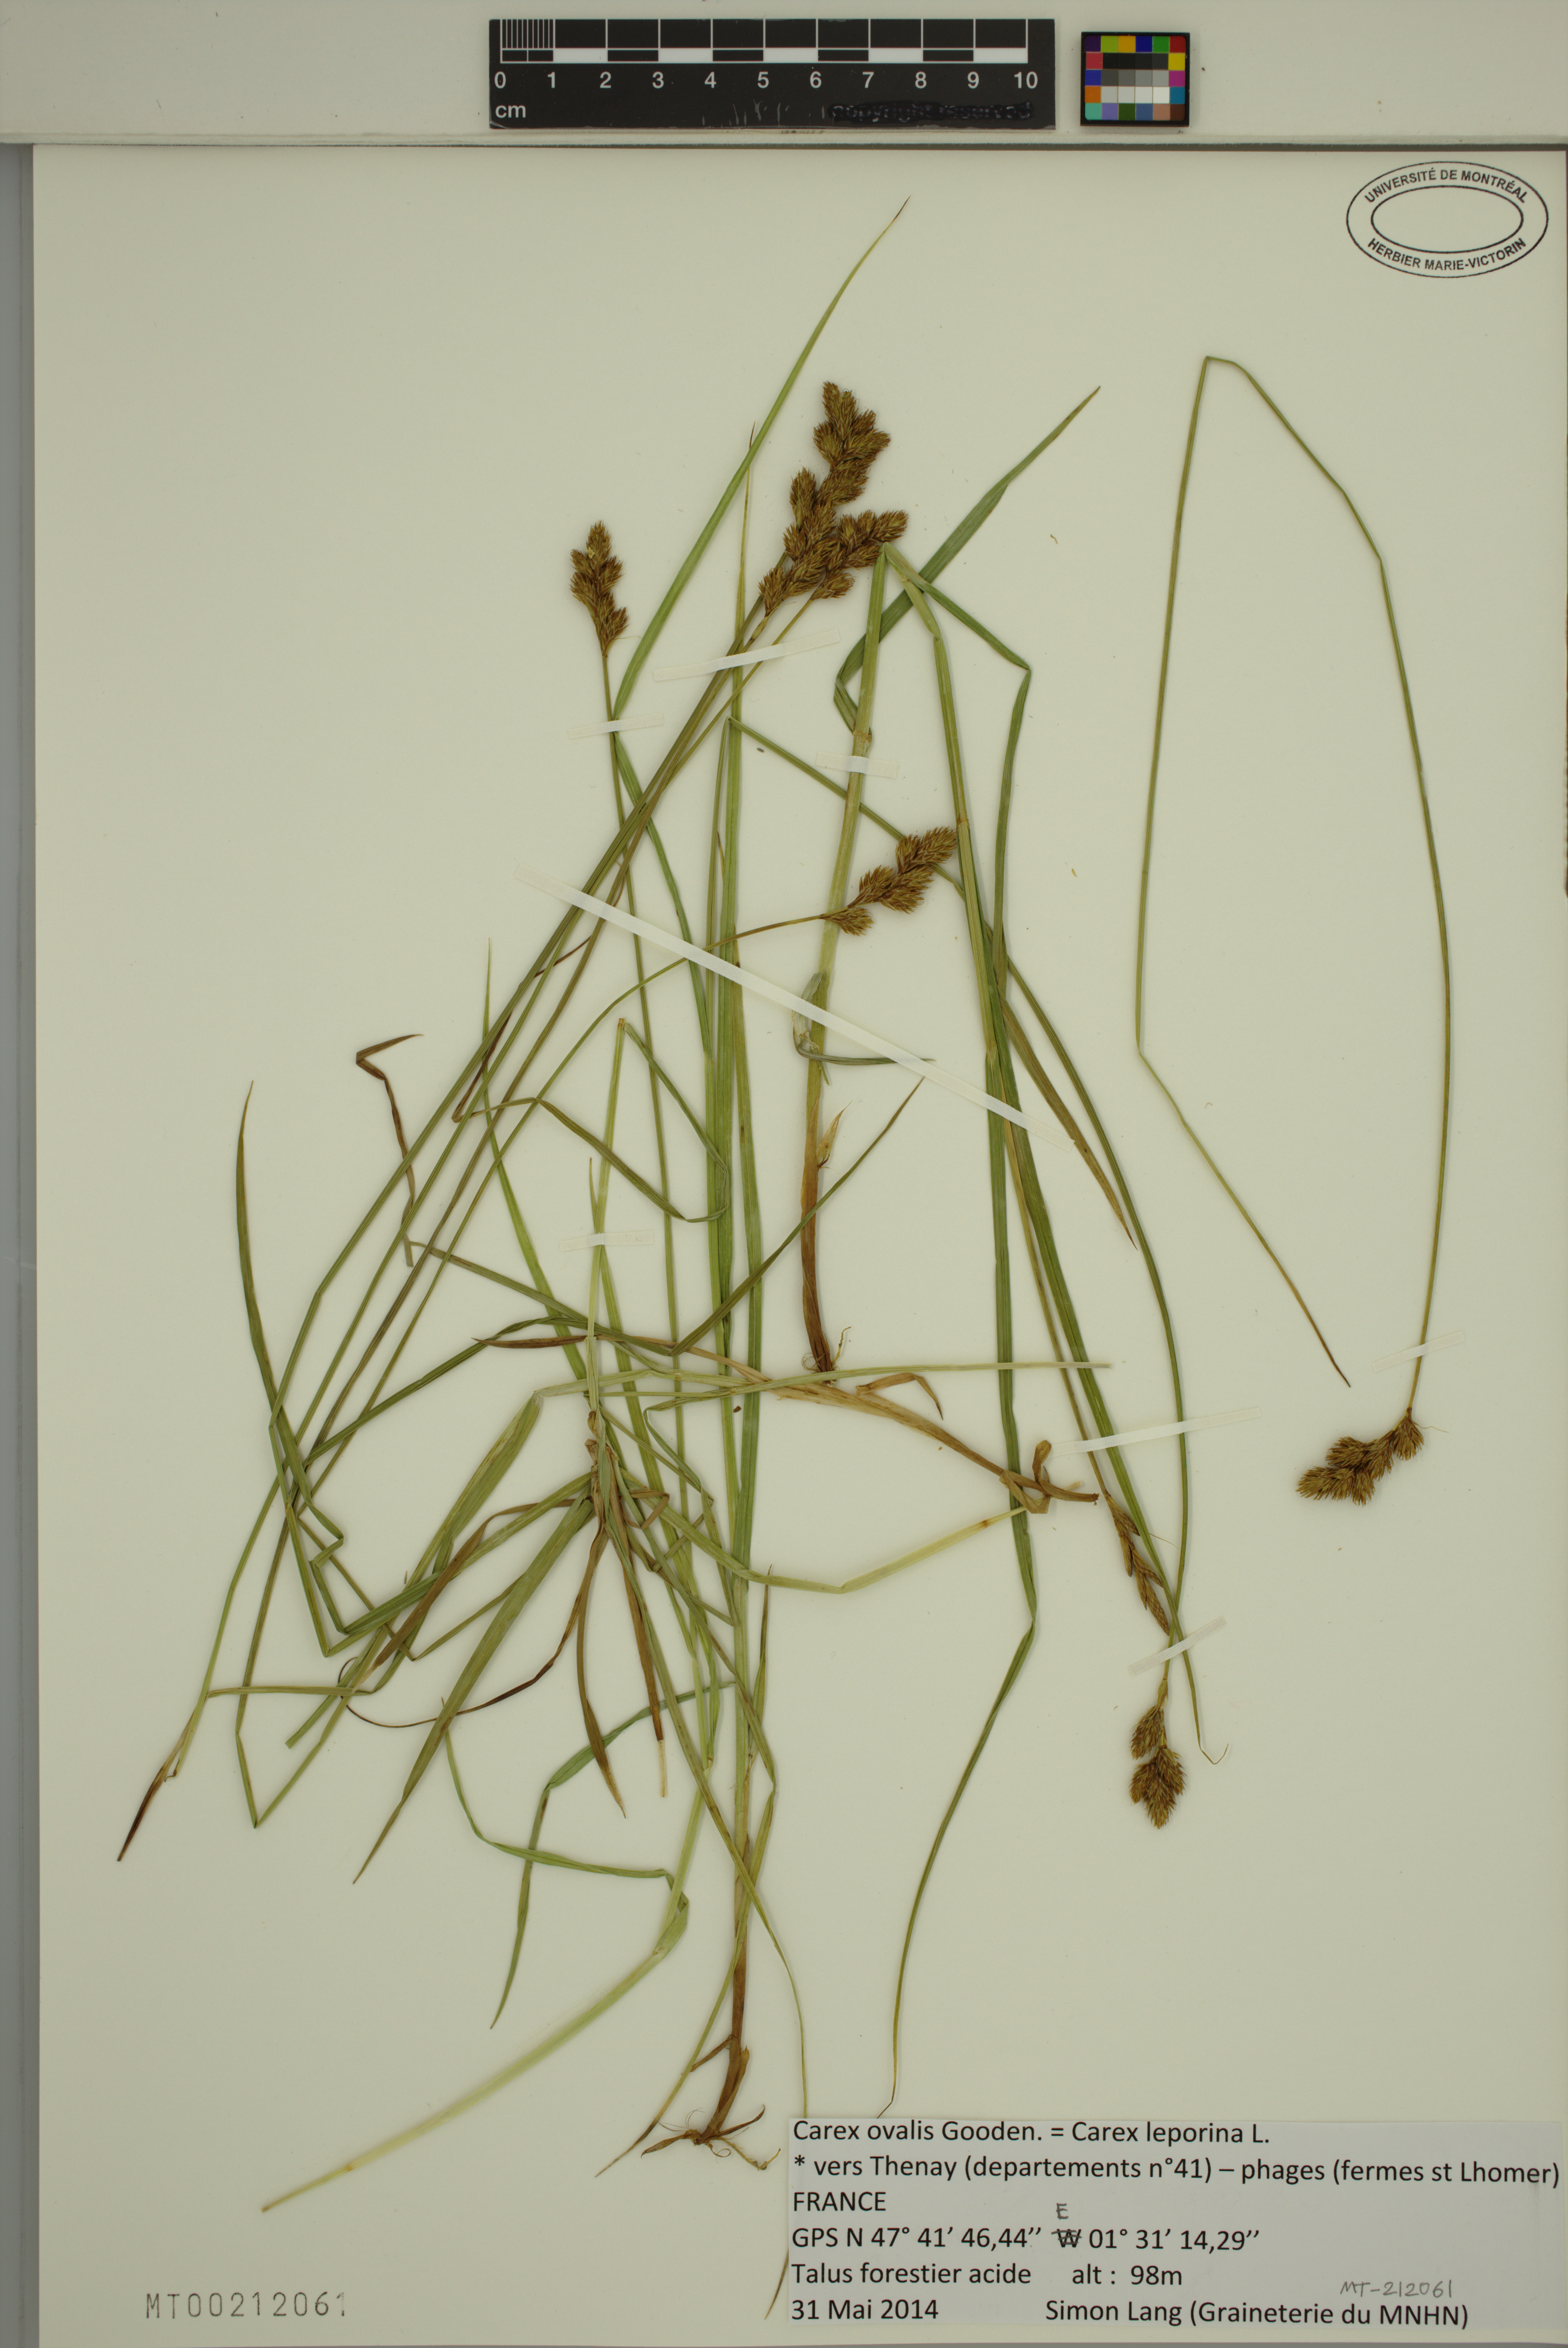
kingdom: Plantae
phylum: Tracheophyta
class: Liliopsida
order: Poales
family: Cyperaceae
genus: Carex
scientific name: Carex leporina
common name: Oval sedge
